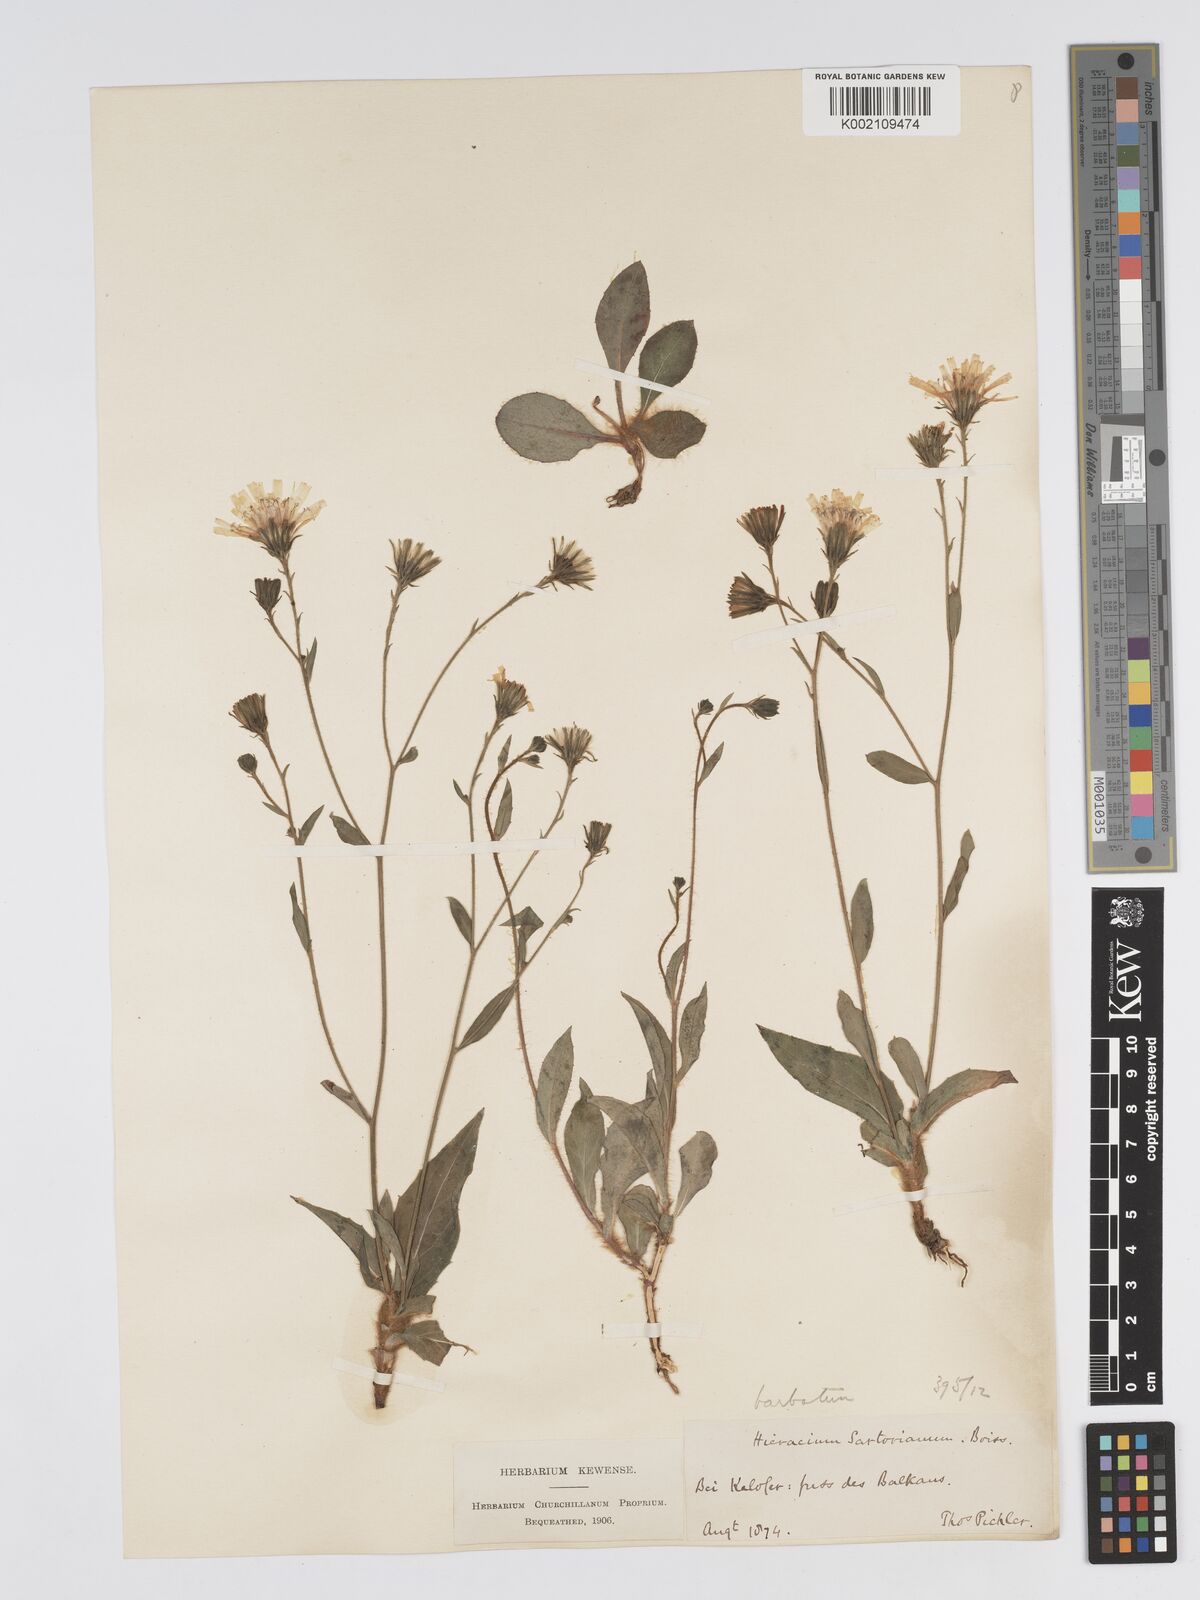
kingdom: Plantae
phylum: Tracheophyta
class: Magnoliopsida
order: Asterales
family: Asteraceae
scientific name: Asteraceae
